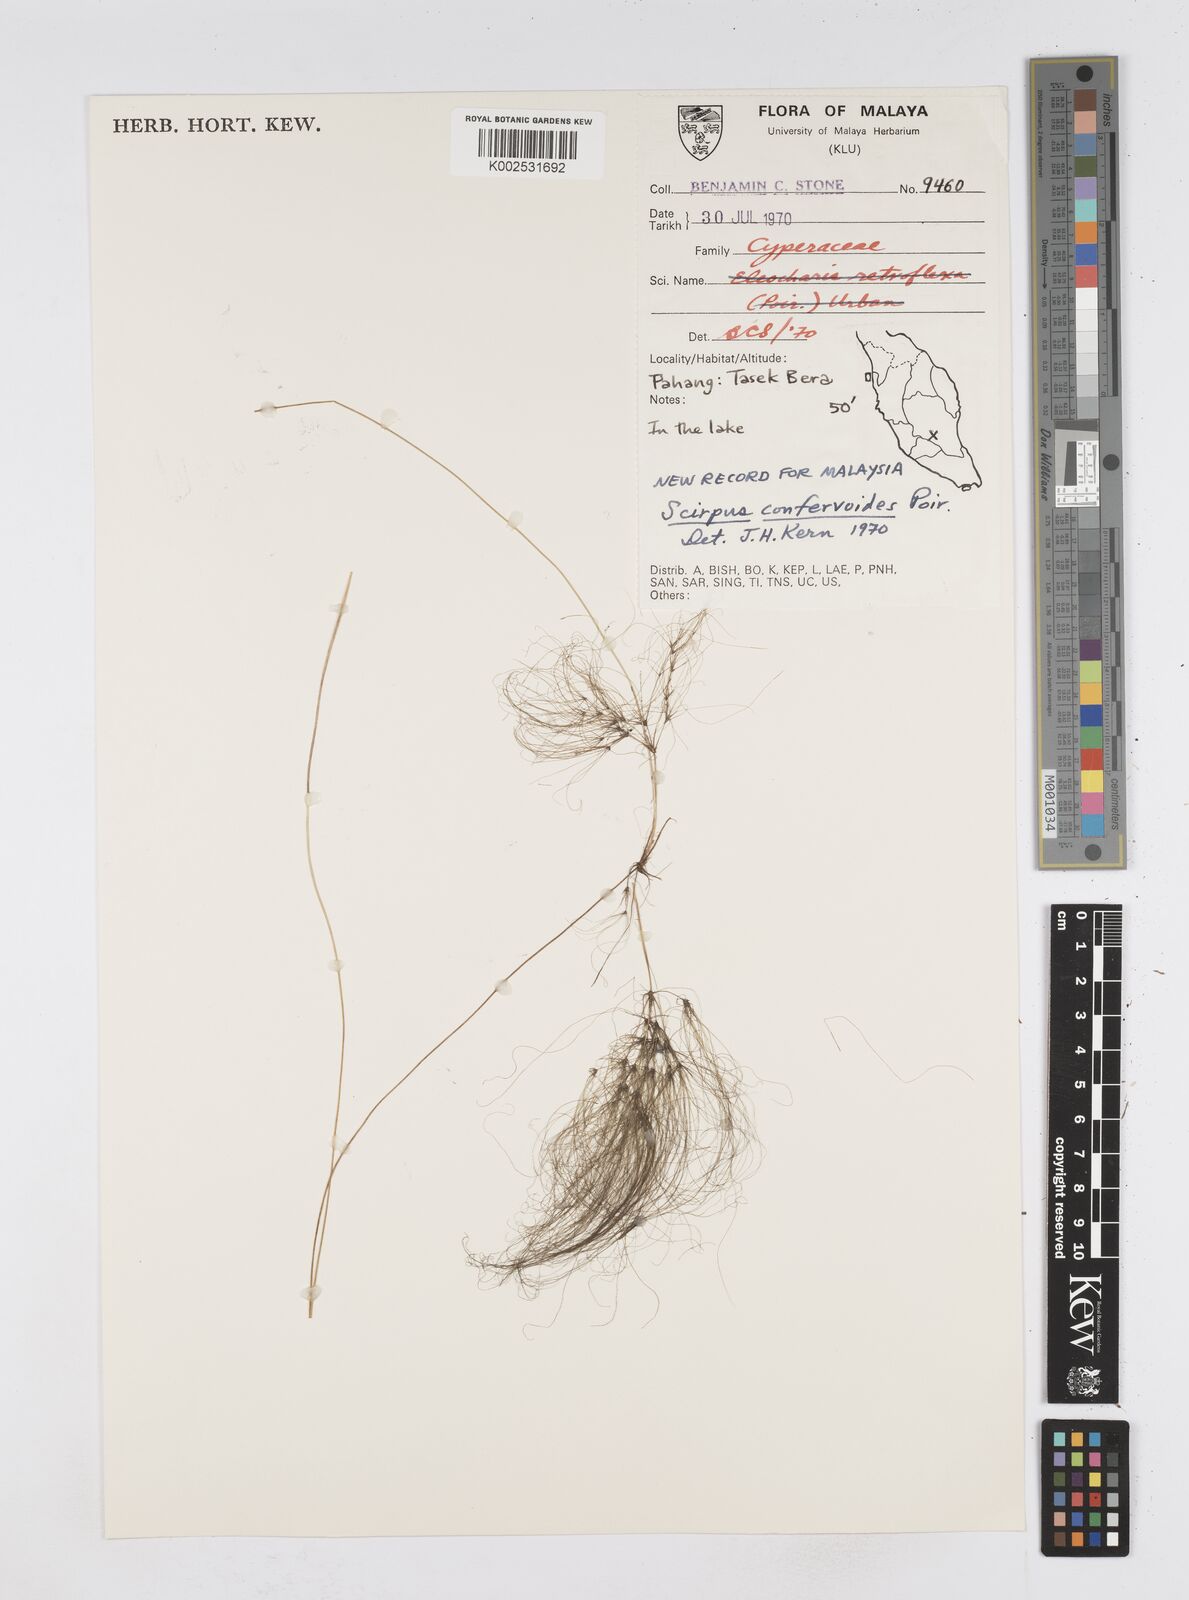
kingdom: Plantae
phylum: Tracheophyta
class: Liliopsida
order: Poales
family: Cyperaceae
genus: Eleocharis
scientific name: Eleocharis confervoides
